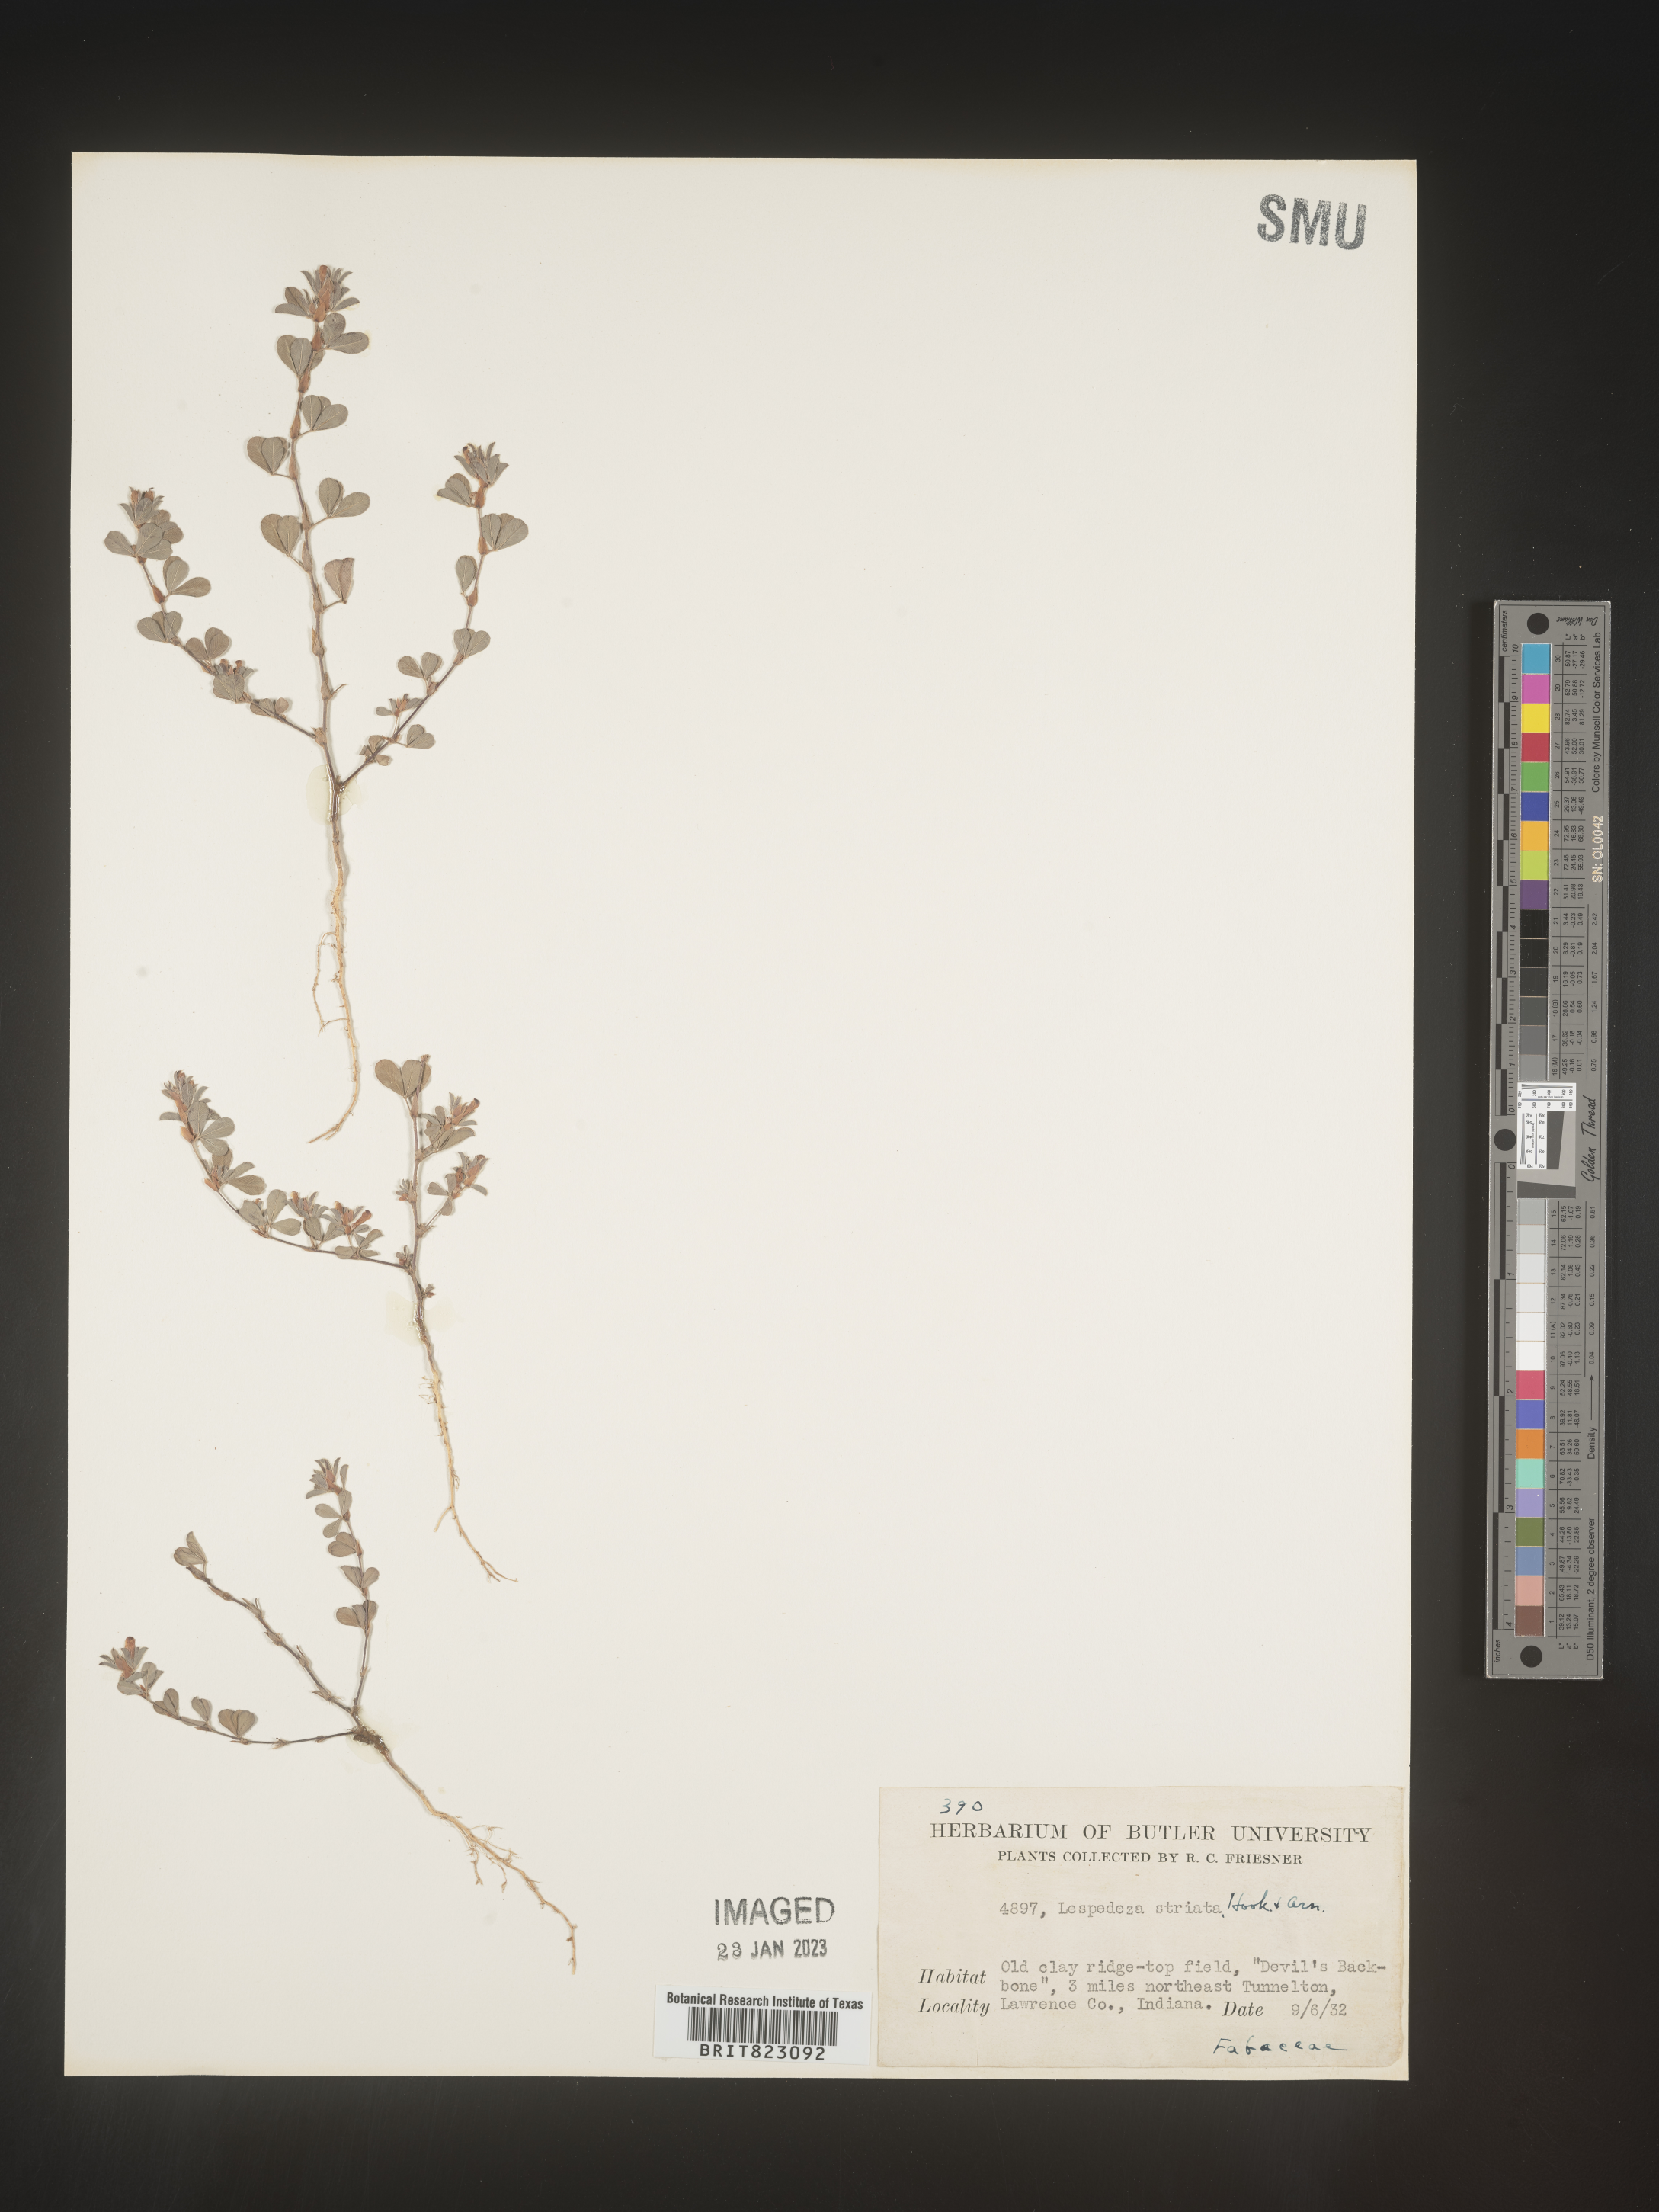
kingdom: Plantae
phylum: Tracheophyta
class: Magnoliopsida
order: Fabales
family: Fabaceae
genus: Kummerowia
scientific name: Kummerowia striata
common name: Japanese clover
